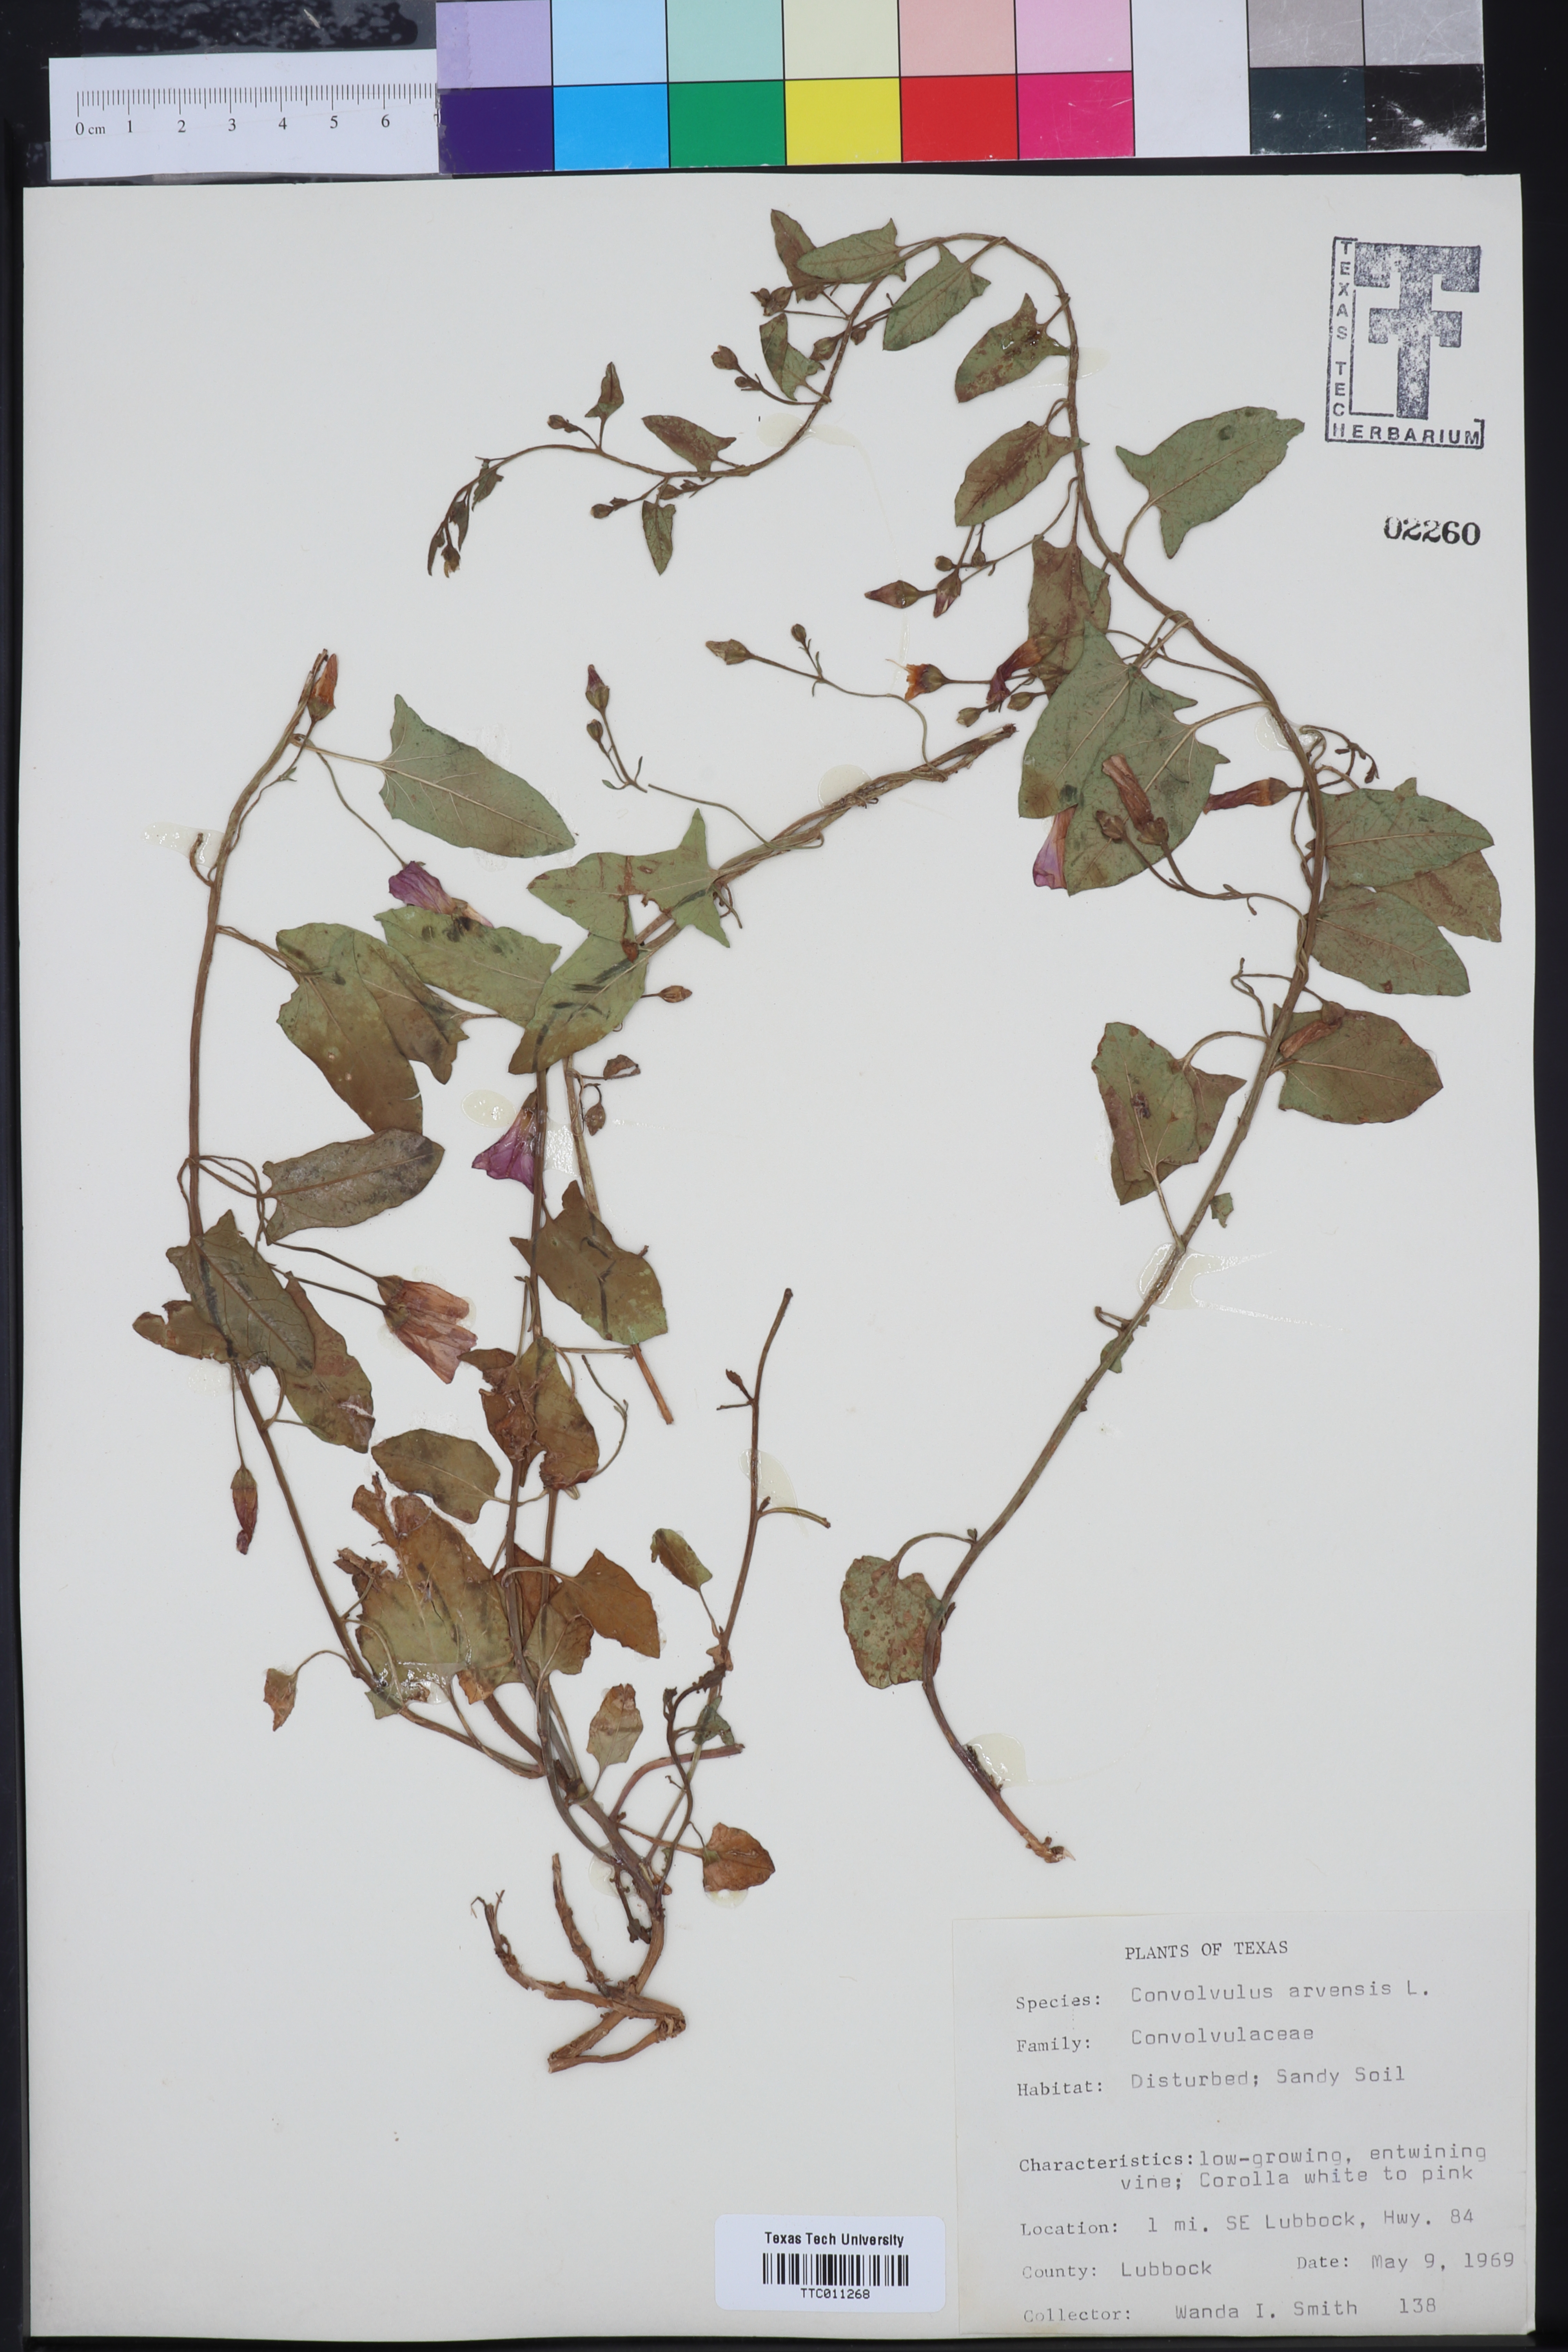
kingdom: Plantae
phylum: Tracheophyta
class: Magnoliopsida
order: Solanales
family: Convolvulaceae
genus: Convolvulus
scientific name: Convolvulus arvensis
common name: Field bindweed
